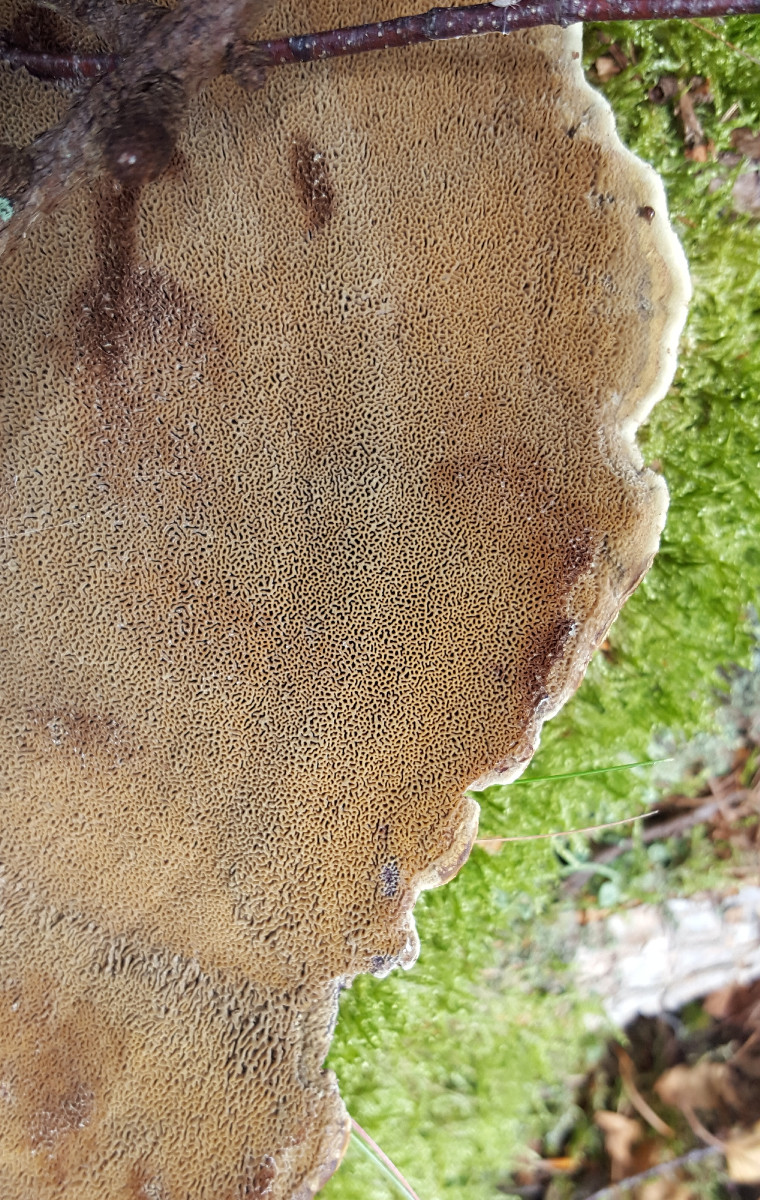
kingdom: Fungi
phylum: Basidiomycota
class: Agaricomycetes
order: Polyporales
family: Laetiporaceae
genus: Phaeolus
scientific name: Phaeolus schweinitzii
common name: brunporesvamp
